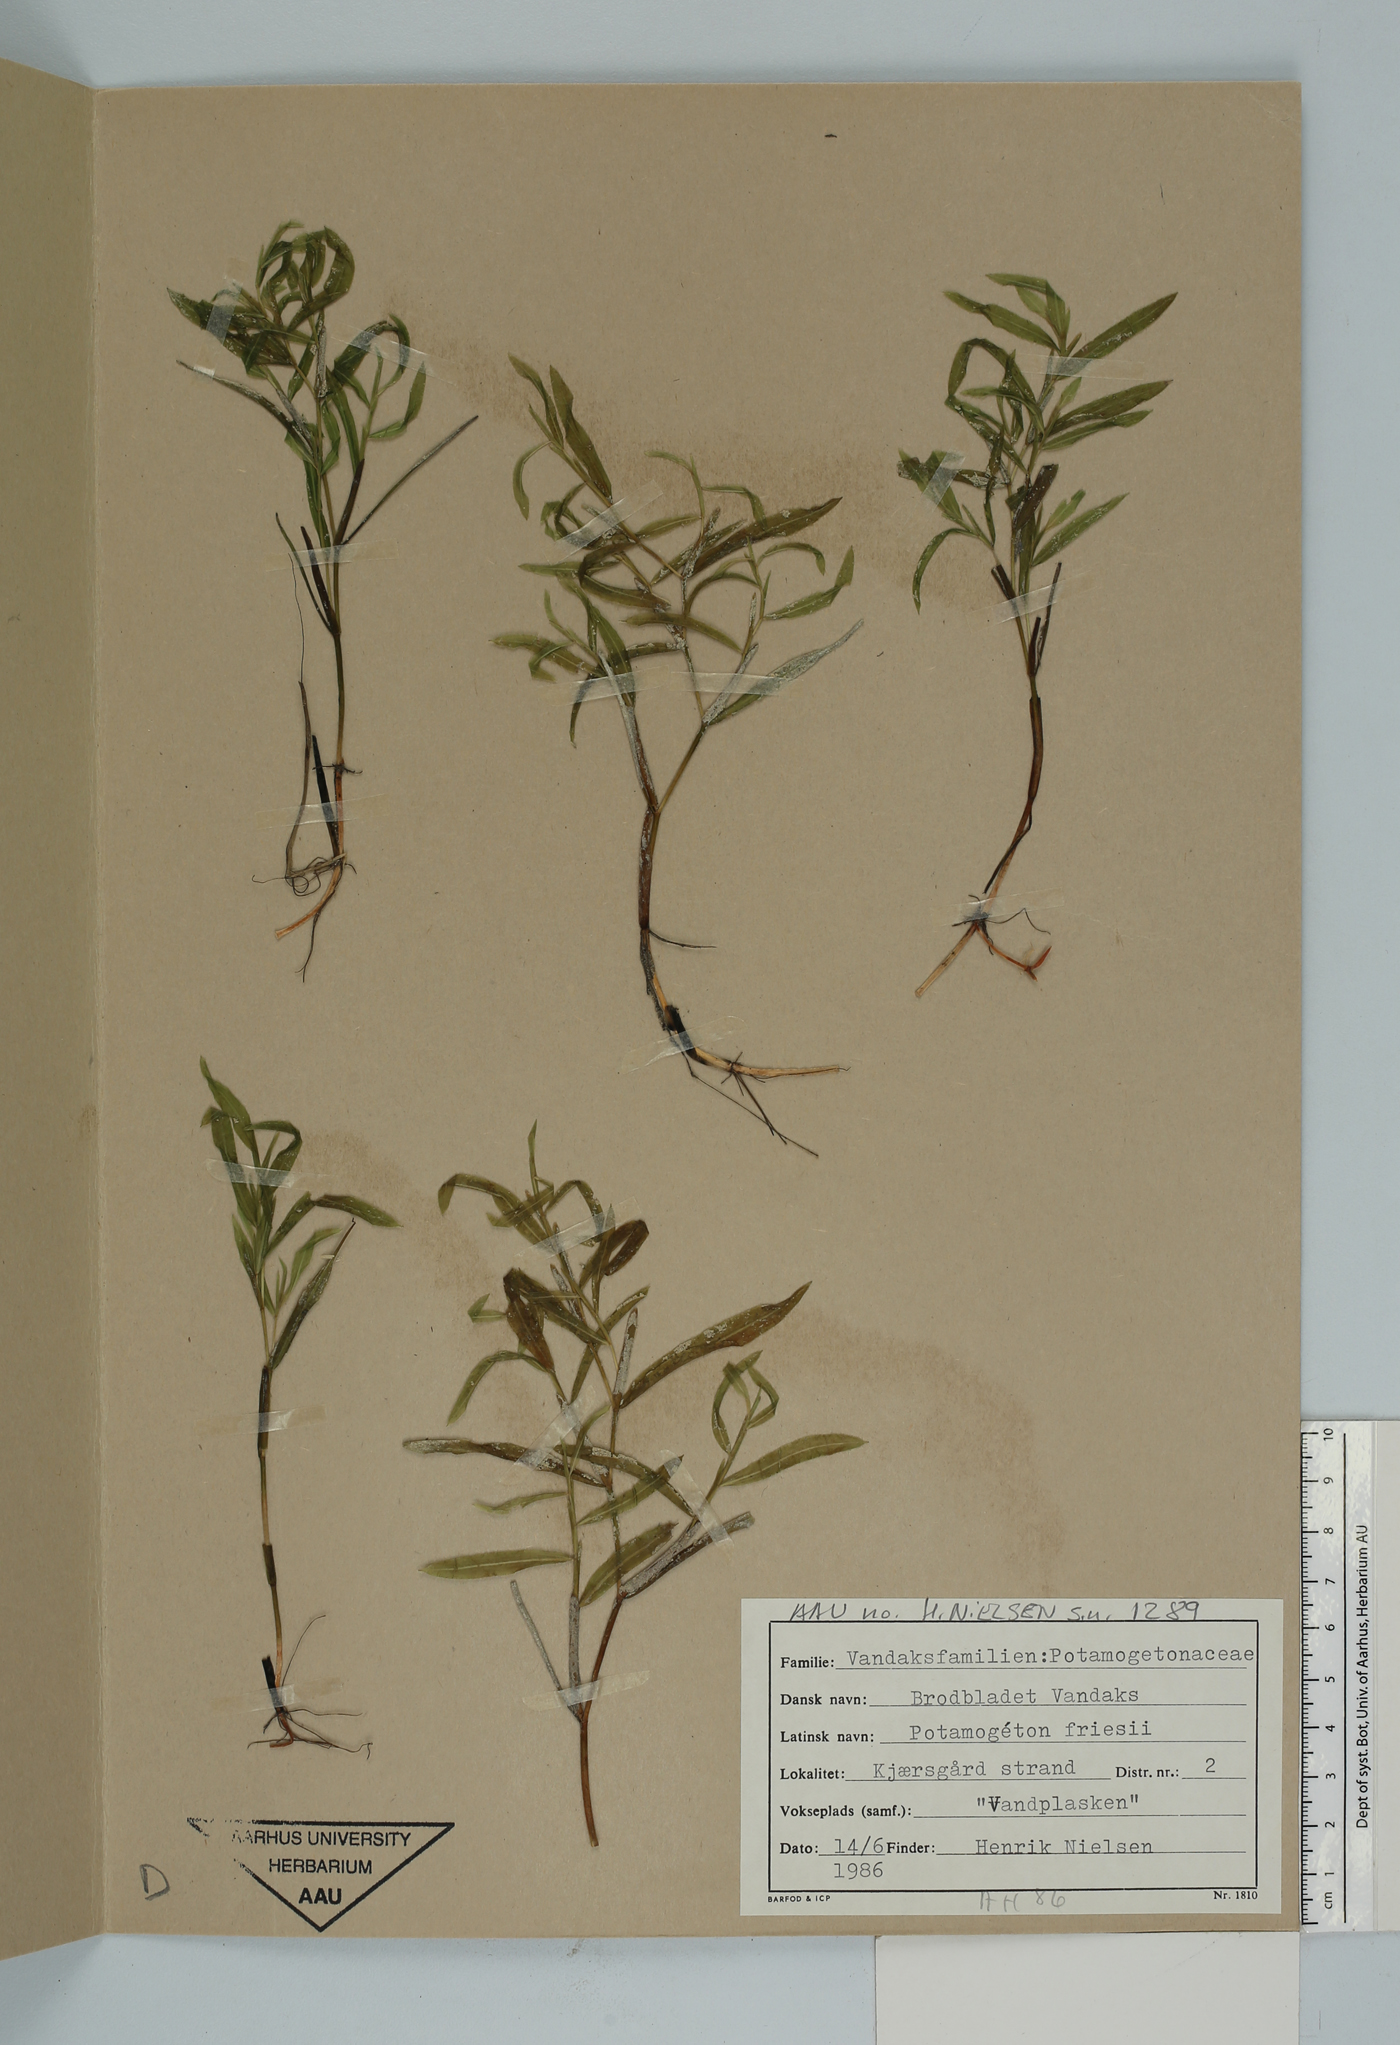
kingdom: Plantae
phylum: Tracheophyta
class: Liliopsida
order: Alismatales
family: Potamogetonaceae
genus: Potamogeton
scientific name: Potamogeton friesii
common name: Flat-stalked pondweed
